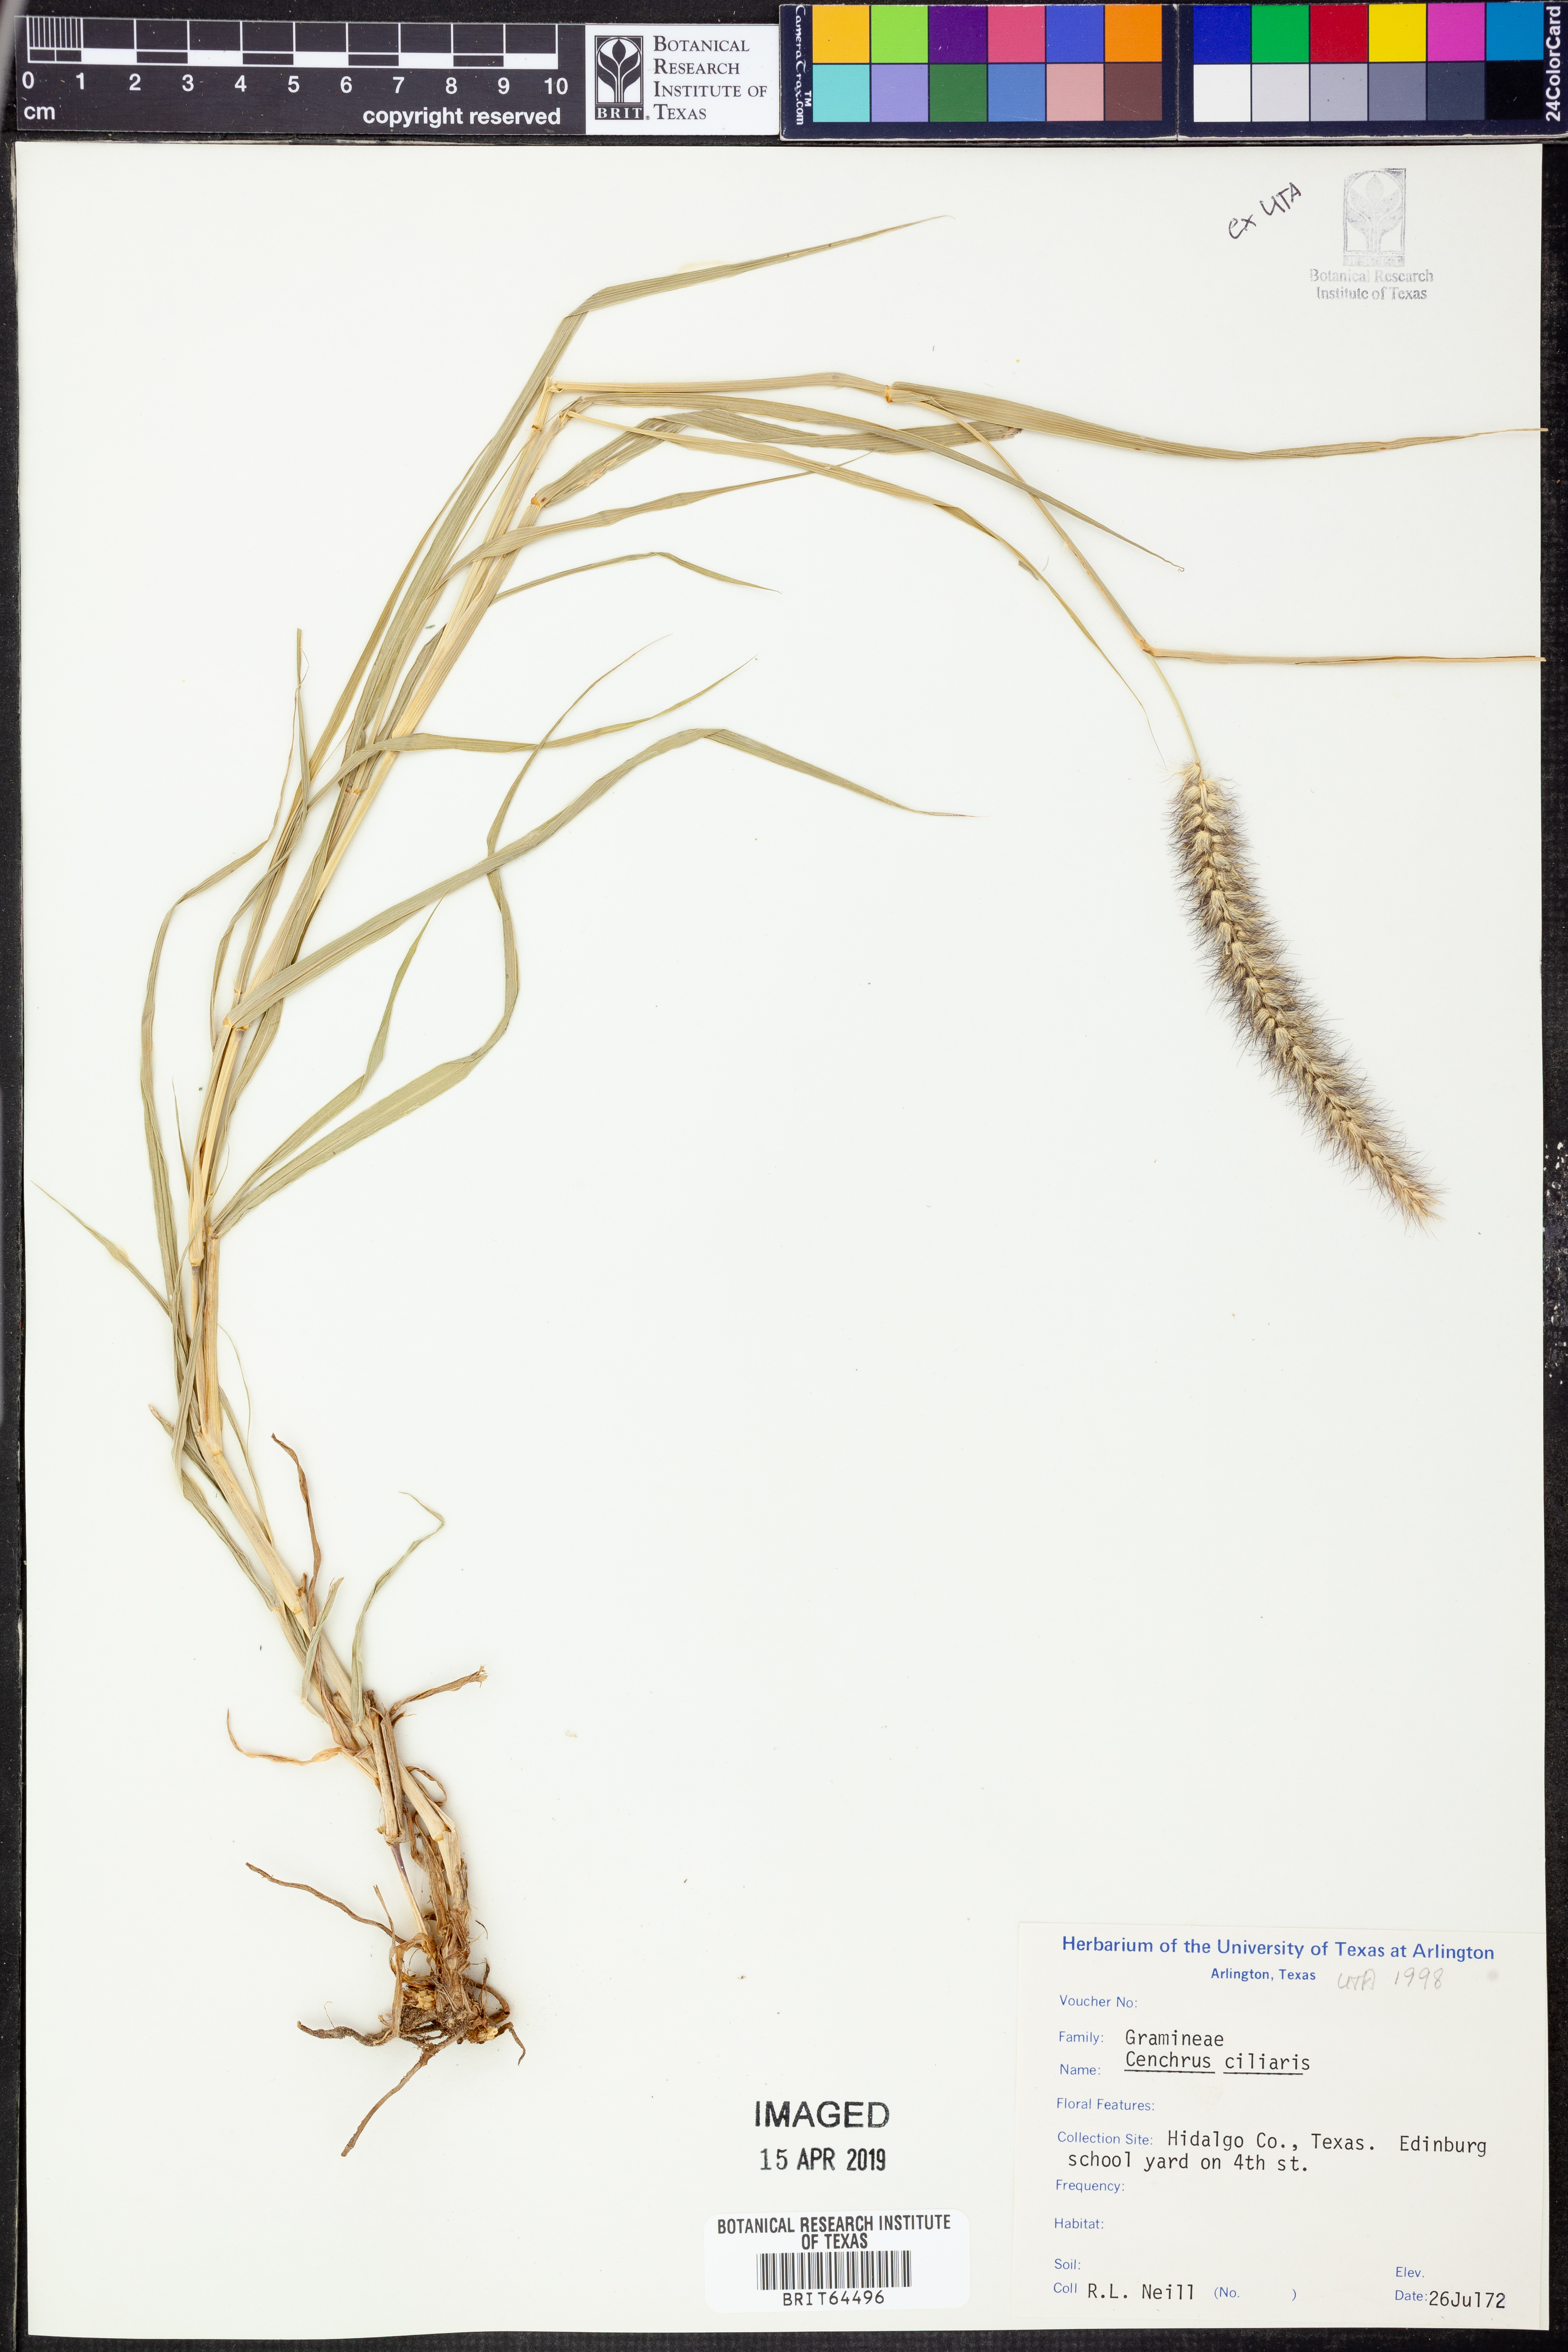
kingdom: Plantae
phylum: Tracheophyta
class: Liliopsida
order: Poales
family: Poaceae
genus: Cenchrus
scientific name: Cenchrus ciliaris
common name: Buffelgrass
